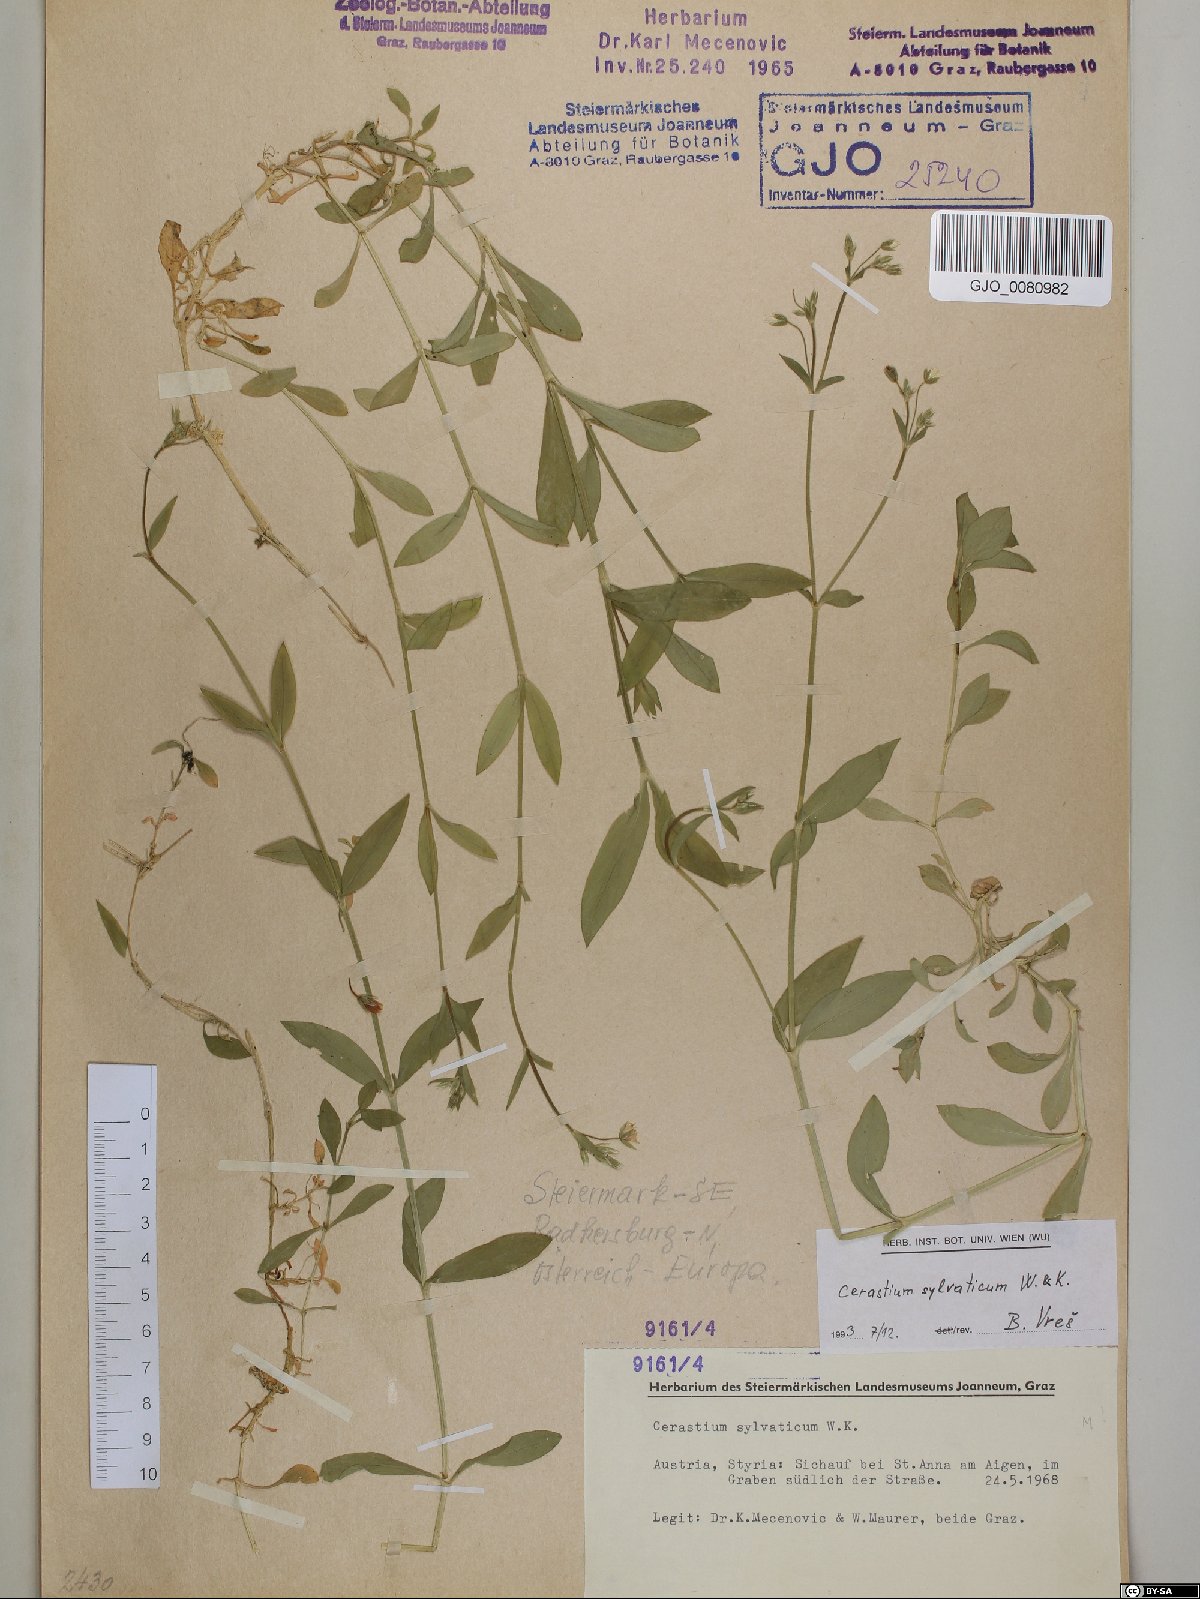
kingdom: Plantae
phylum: Tracheophyta
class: Magnoliopsida
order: Caryophyllales
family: Caryophyllaceae
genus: Cerastium
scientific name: Cerastium sylvaticum
